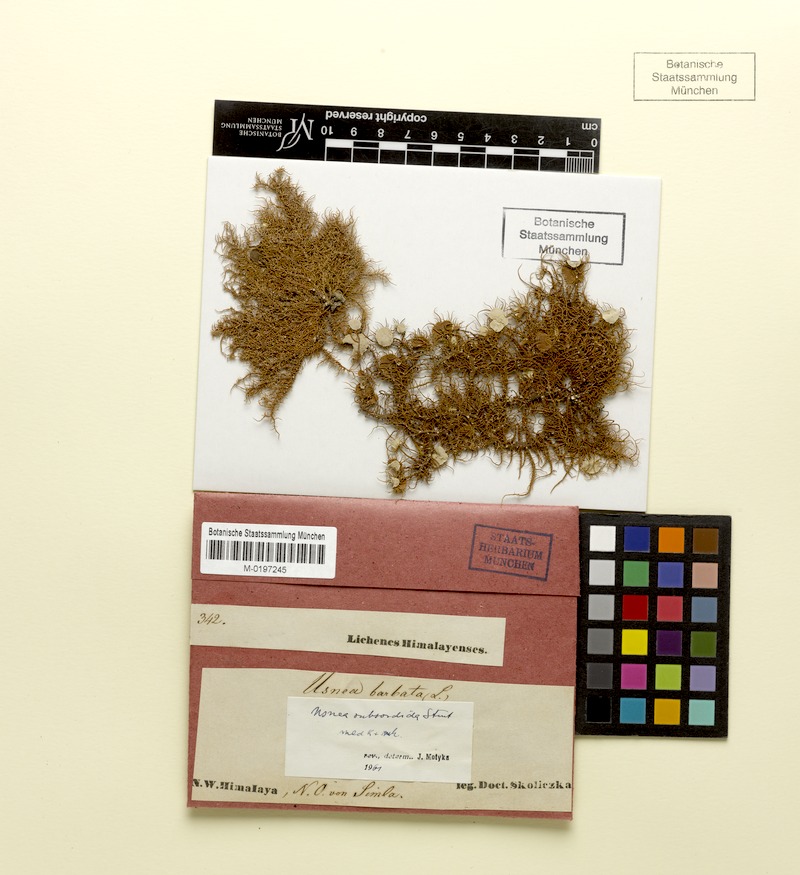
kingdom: Fungi
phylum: Ascomycota
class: Lecanoromycetes
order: Lecanorales
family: Parmeliaceae
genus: Usnea
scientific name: Usnea subsordida
